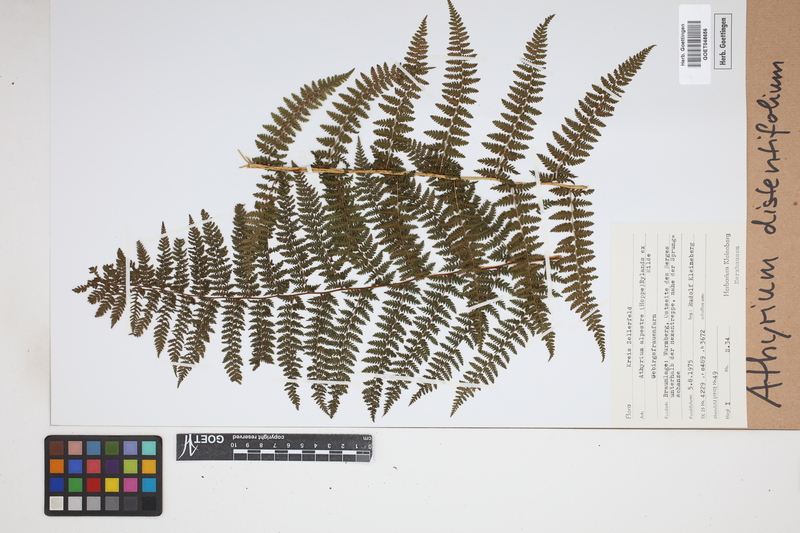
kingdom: Plantae
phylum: Tracheophyta
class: Polypodiopsida
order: Polypodiales
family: Athyriaceae
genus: Pseudathyrium
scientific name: Pseudathyrium alpestre
